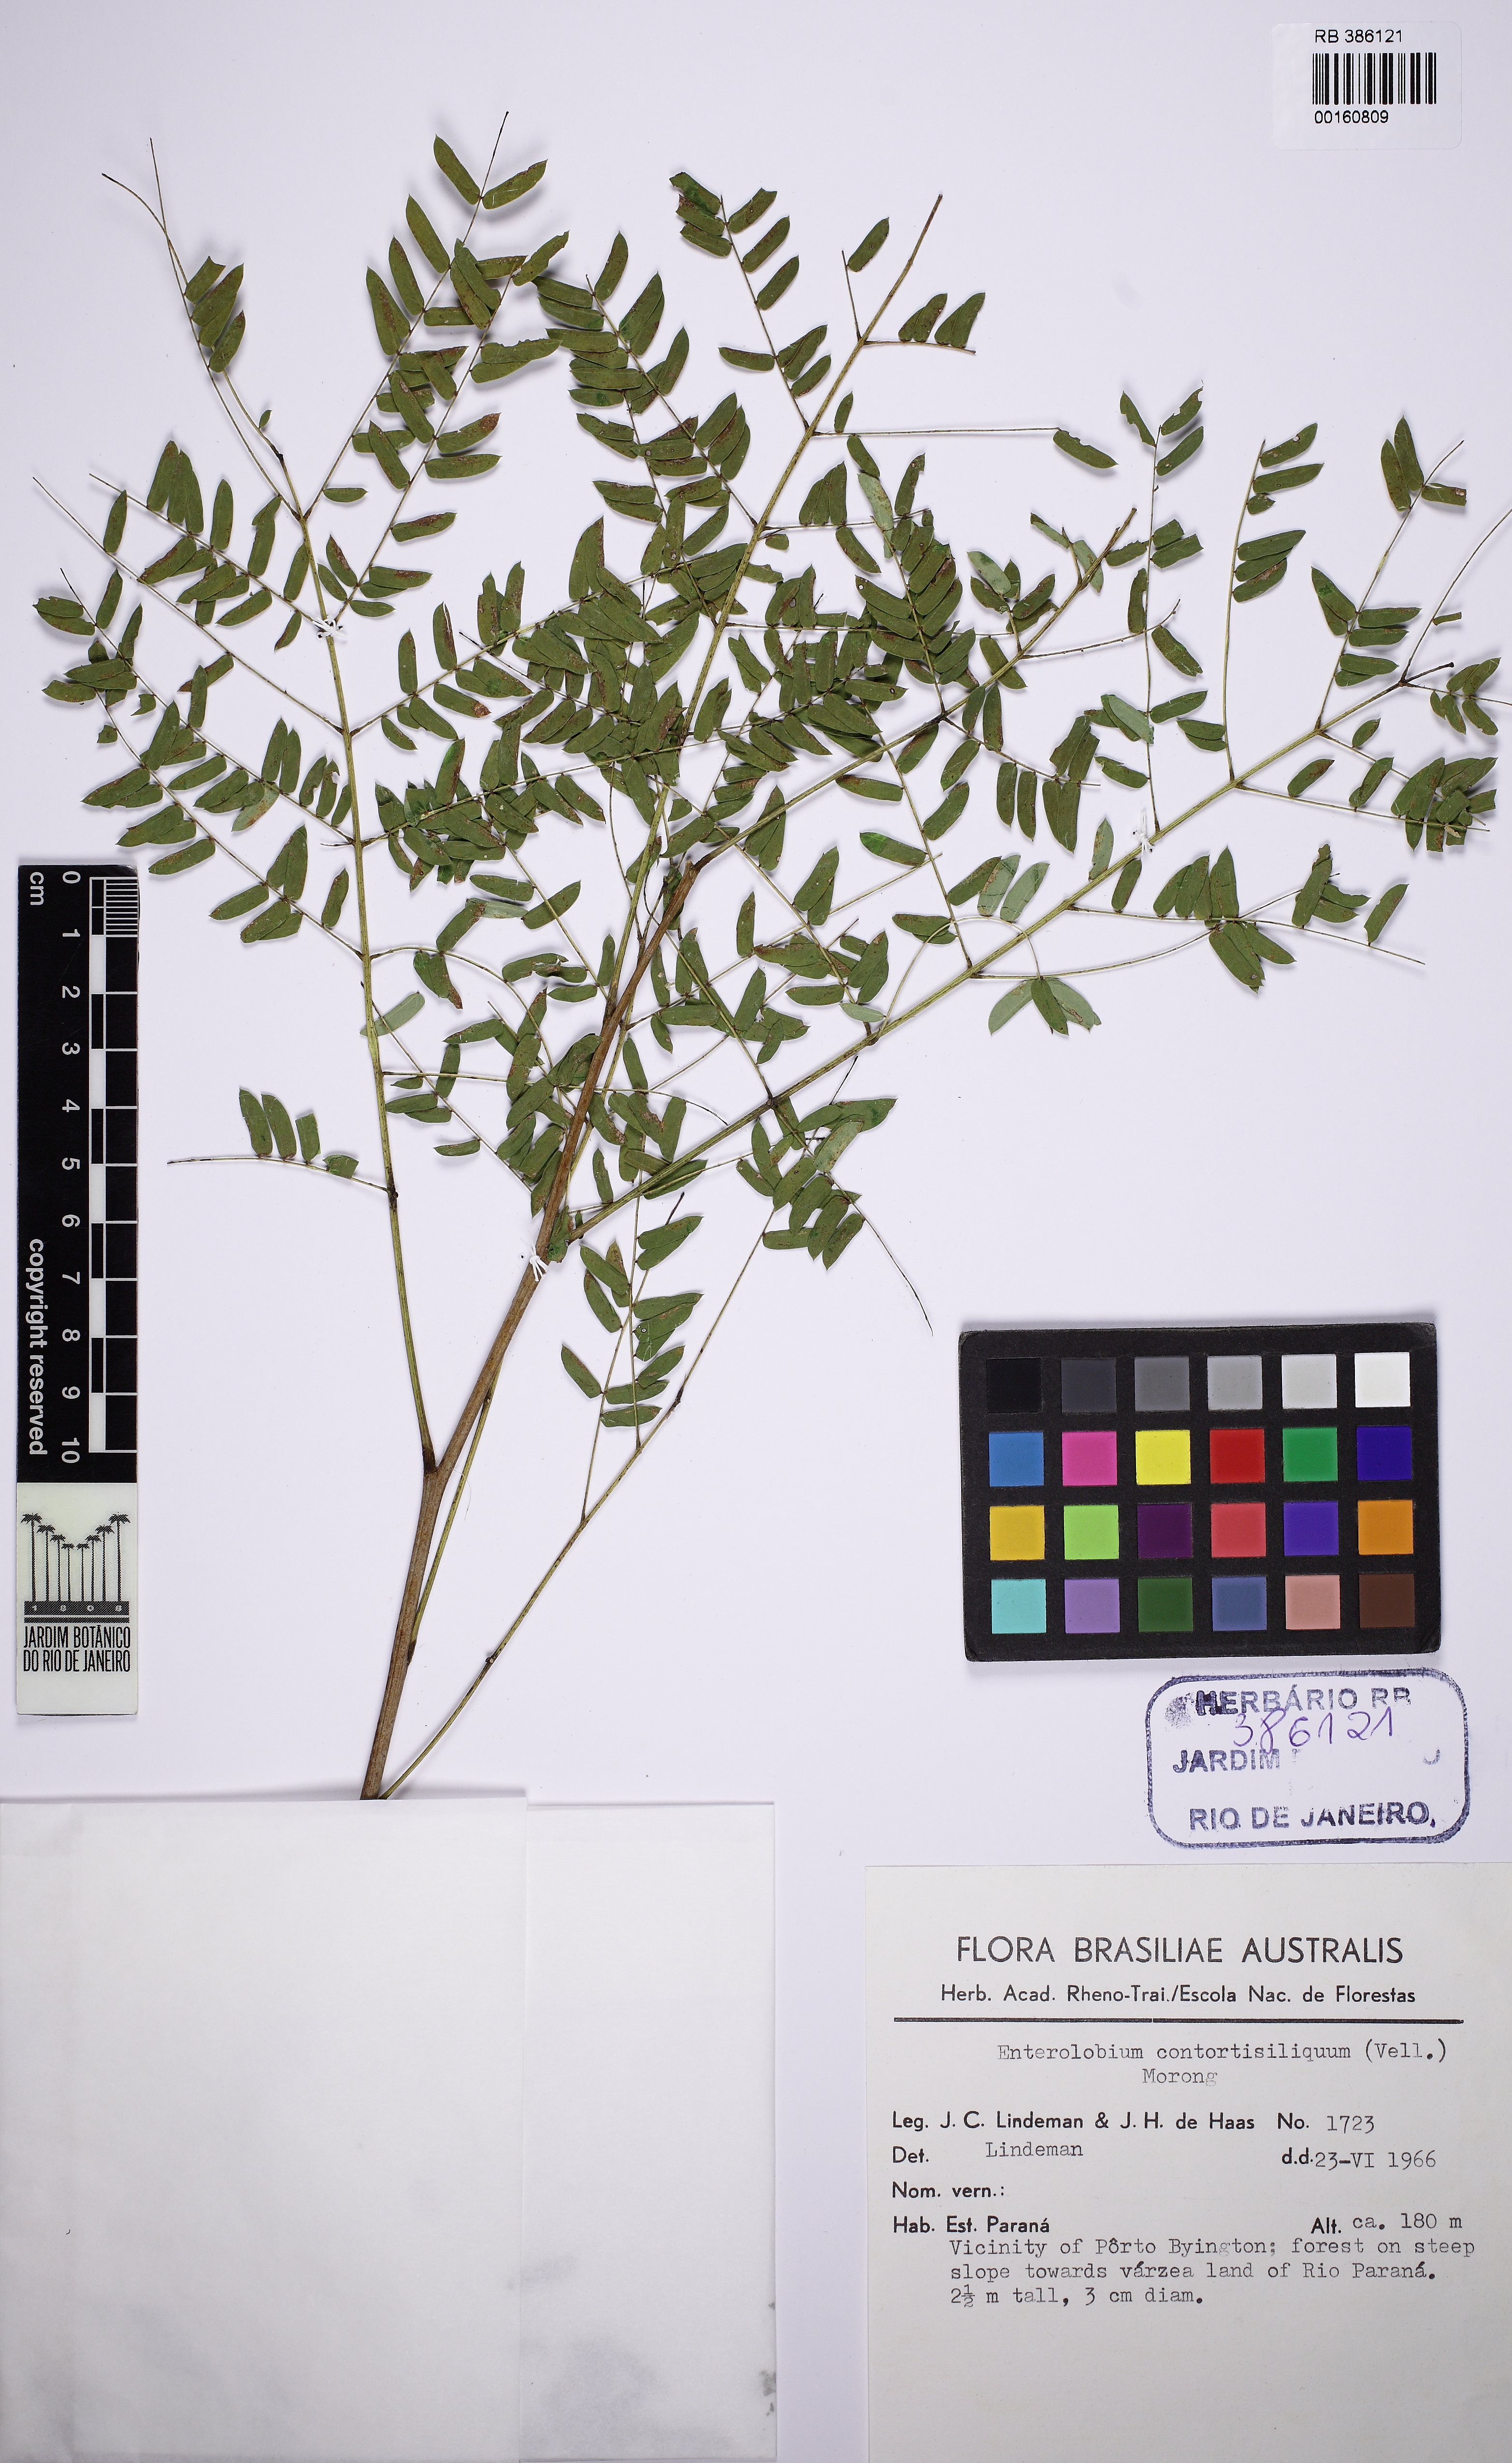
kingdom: Plantae
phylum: Tracheophyta
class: Magnoliopsida
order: Fabales
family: Fabaceae
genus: Enterolobium
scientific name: Enterolobium contortisiliquum
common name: Pacara earpod tree
